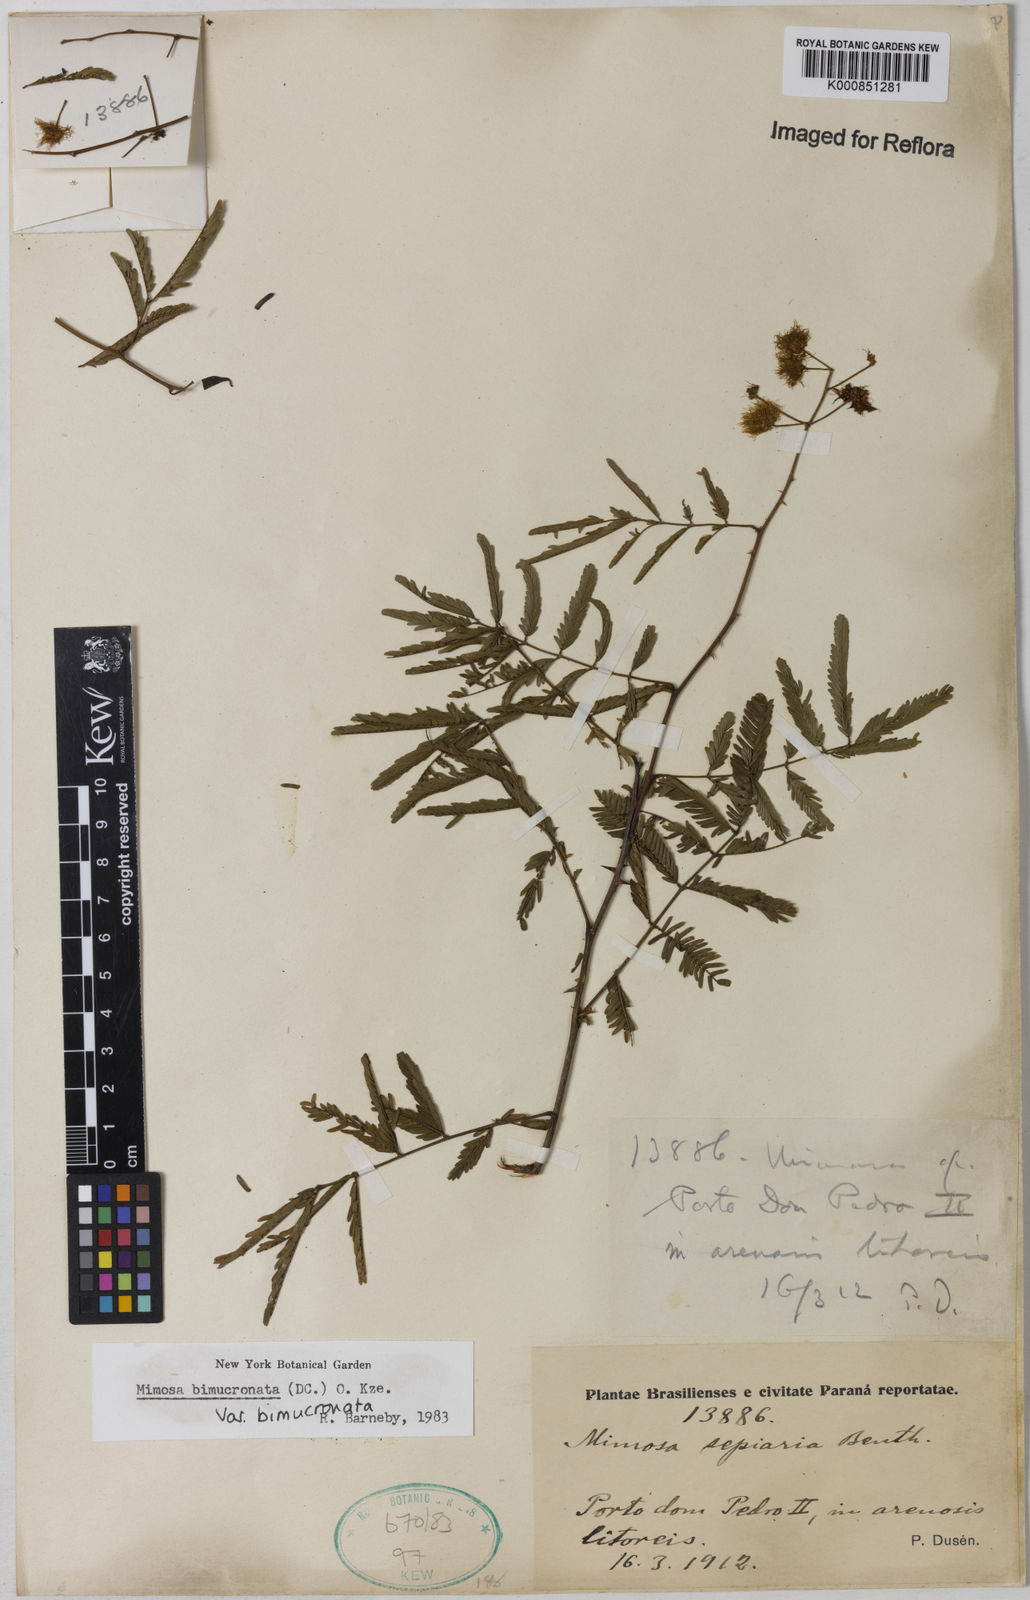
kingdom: Plantae
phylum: Tracheophyta
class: Magnoliopsida
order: Fabales
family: Fabaceae
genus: Mimosa
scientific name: Mimosa bimucronata
